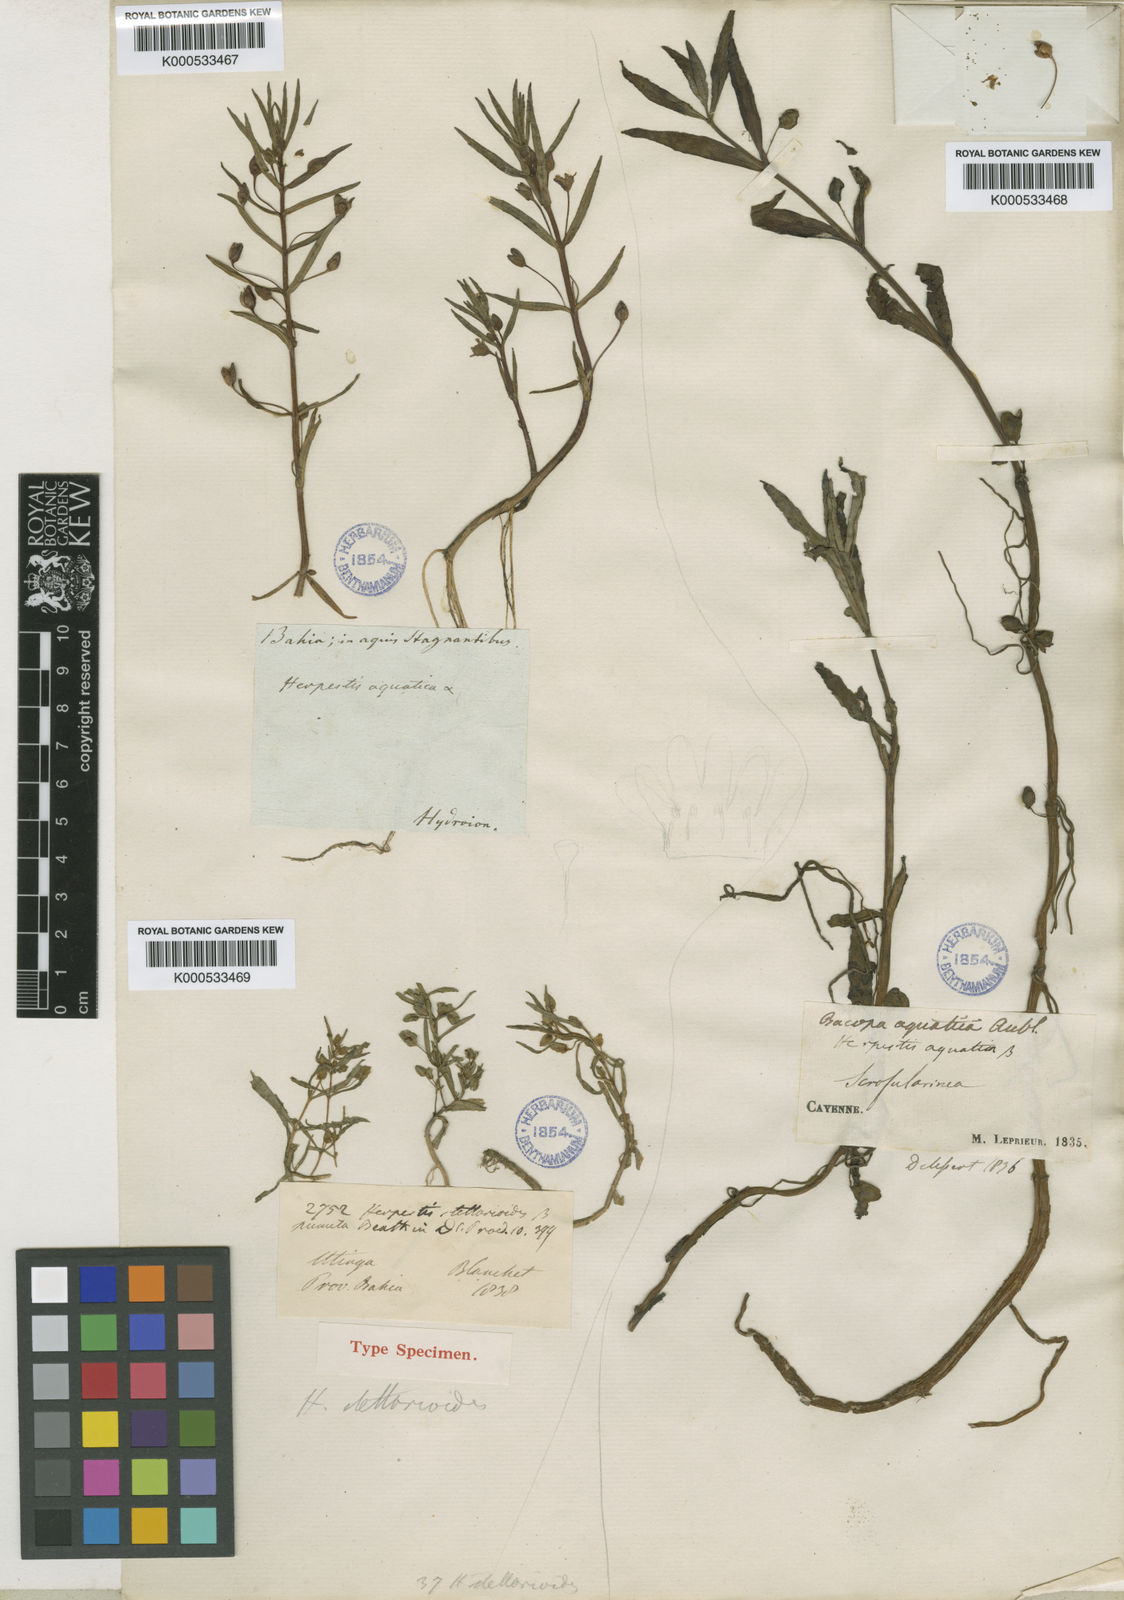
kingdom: Plantae
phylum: Tracheophyta
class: Magnoliopsida
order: Lamiales
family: Plantaginaceae
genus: Bacopa
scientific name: Bacopa aquatica
